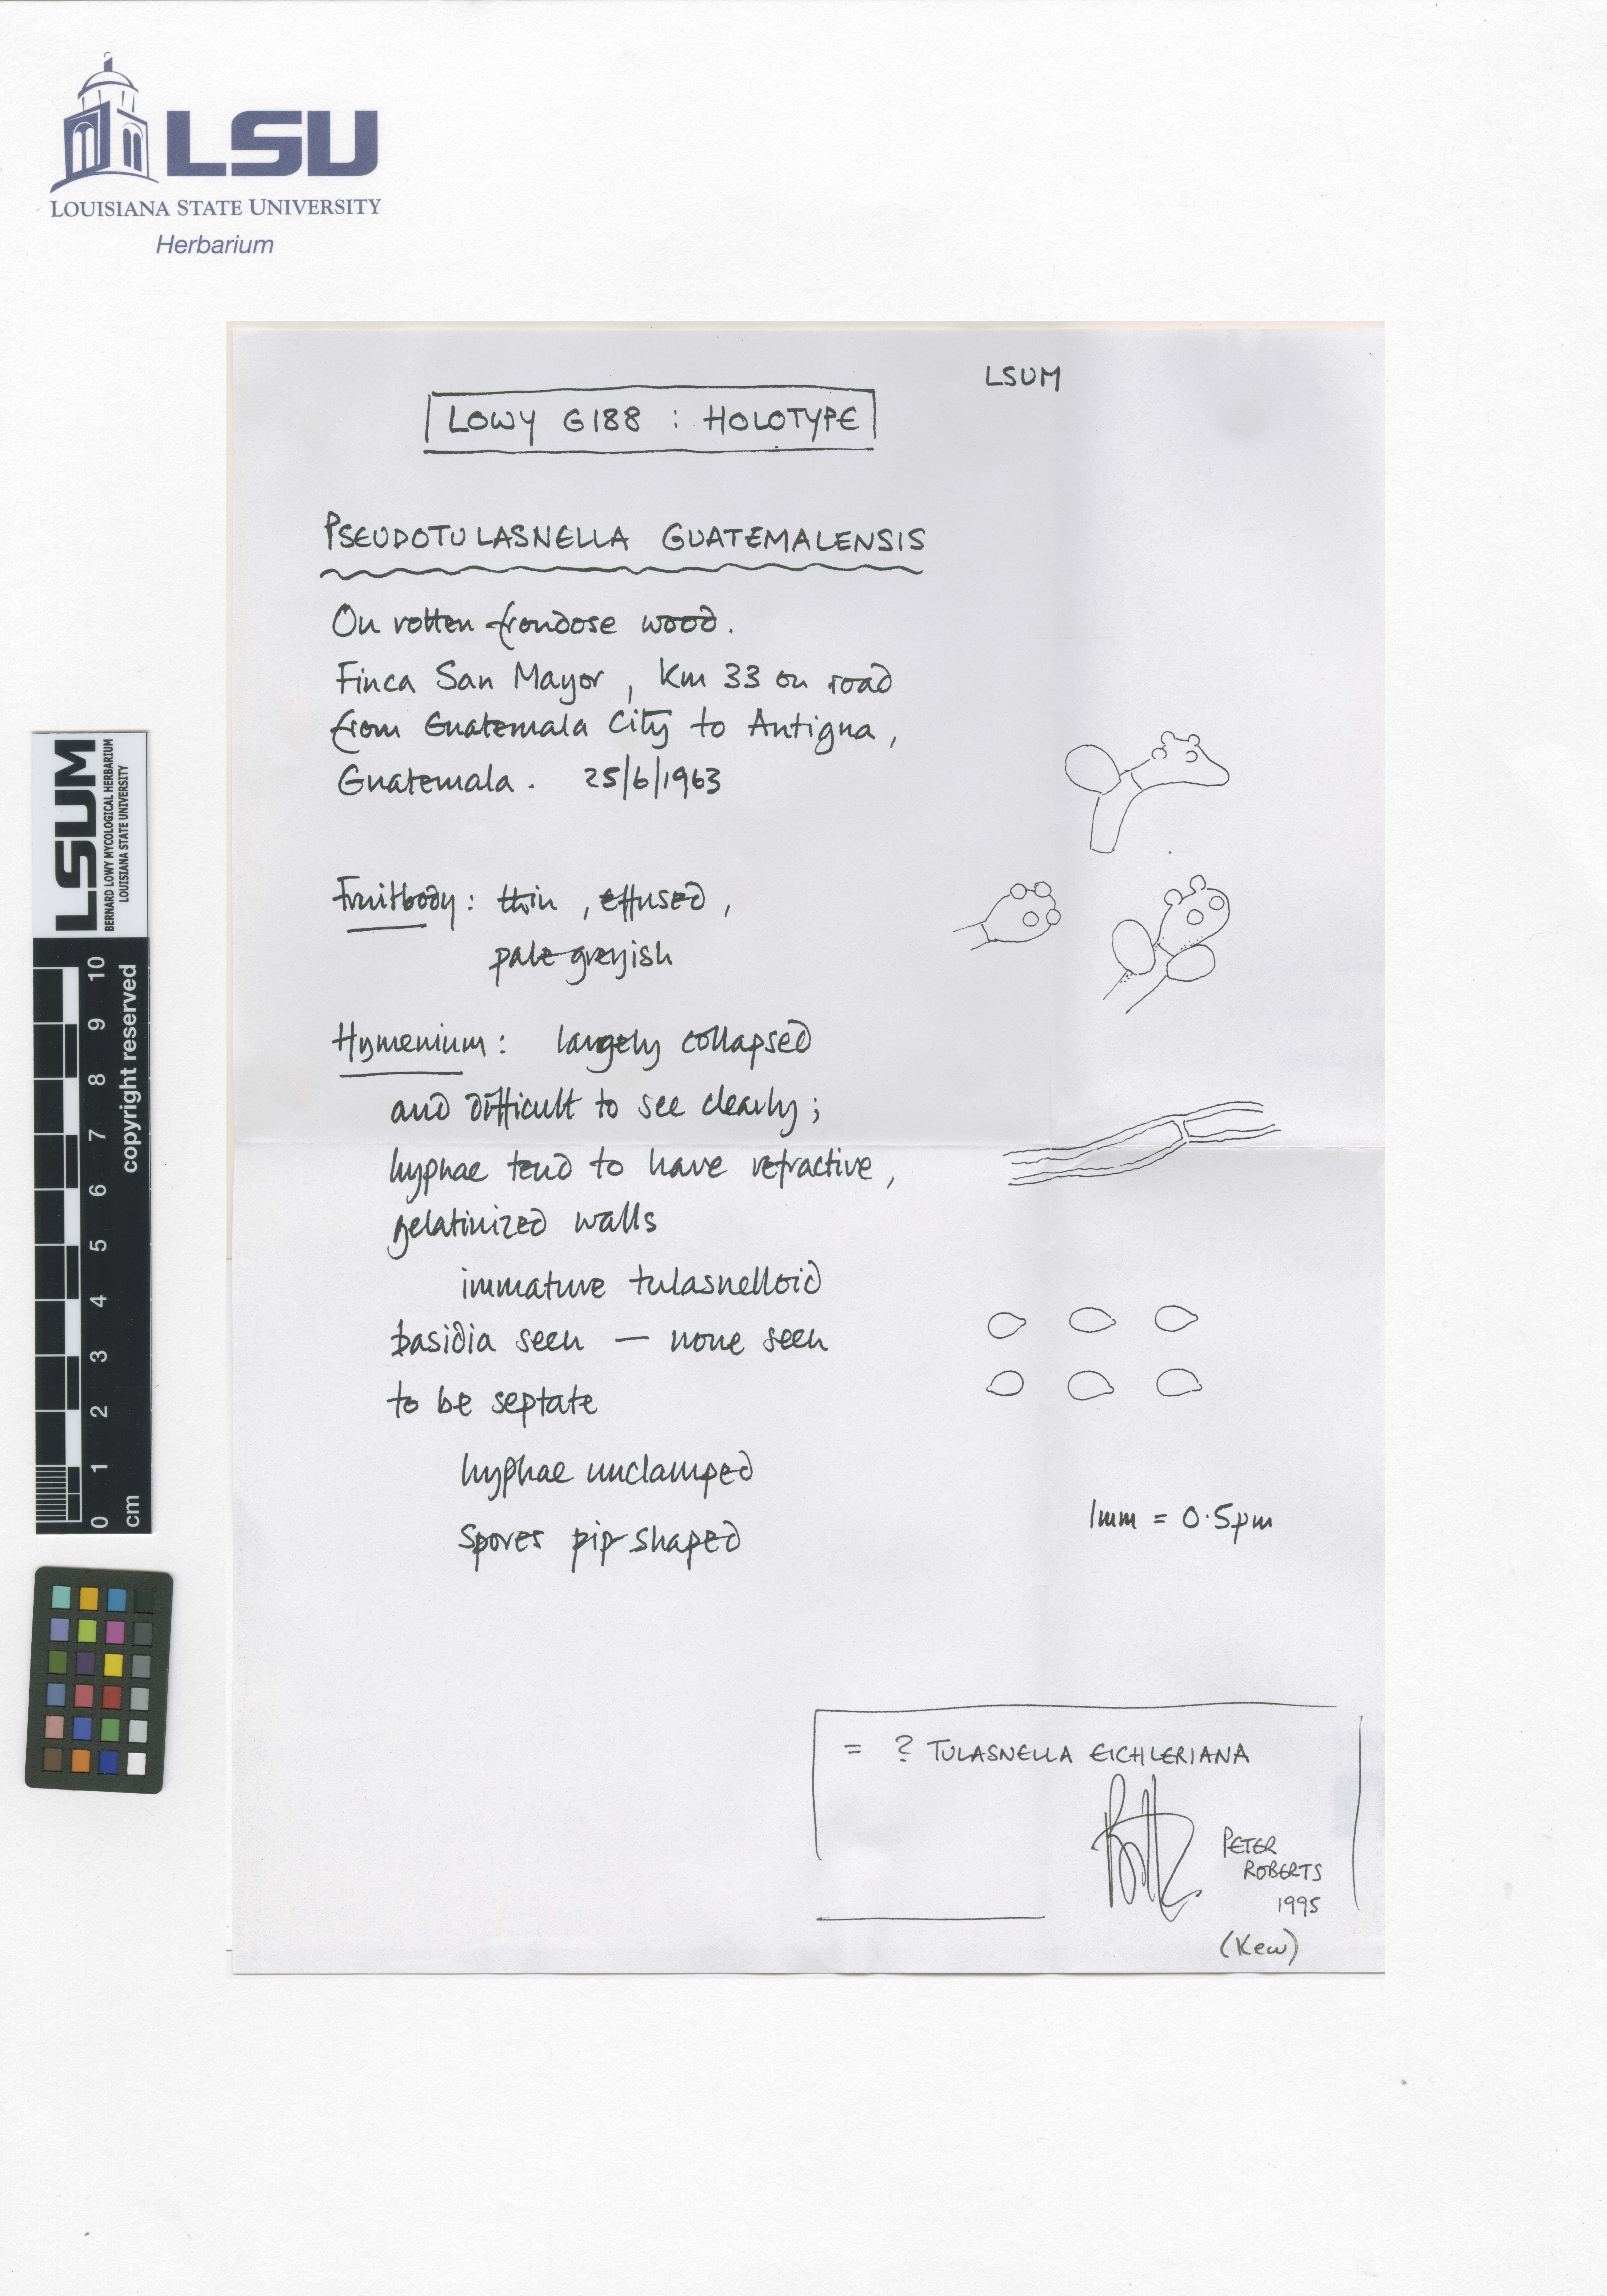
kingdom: Fungi
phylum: Basidiomycota
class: Agaricomycetes
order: Cantharellales
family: Tulasnellaceae
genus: Pseudotulasnella
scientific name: Pseudotulasnella guatemalensis
